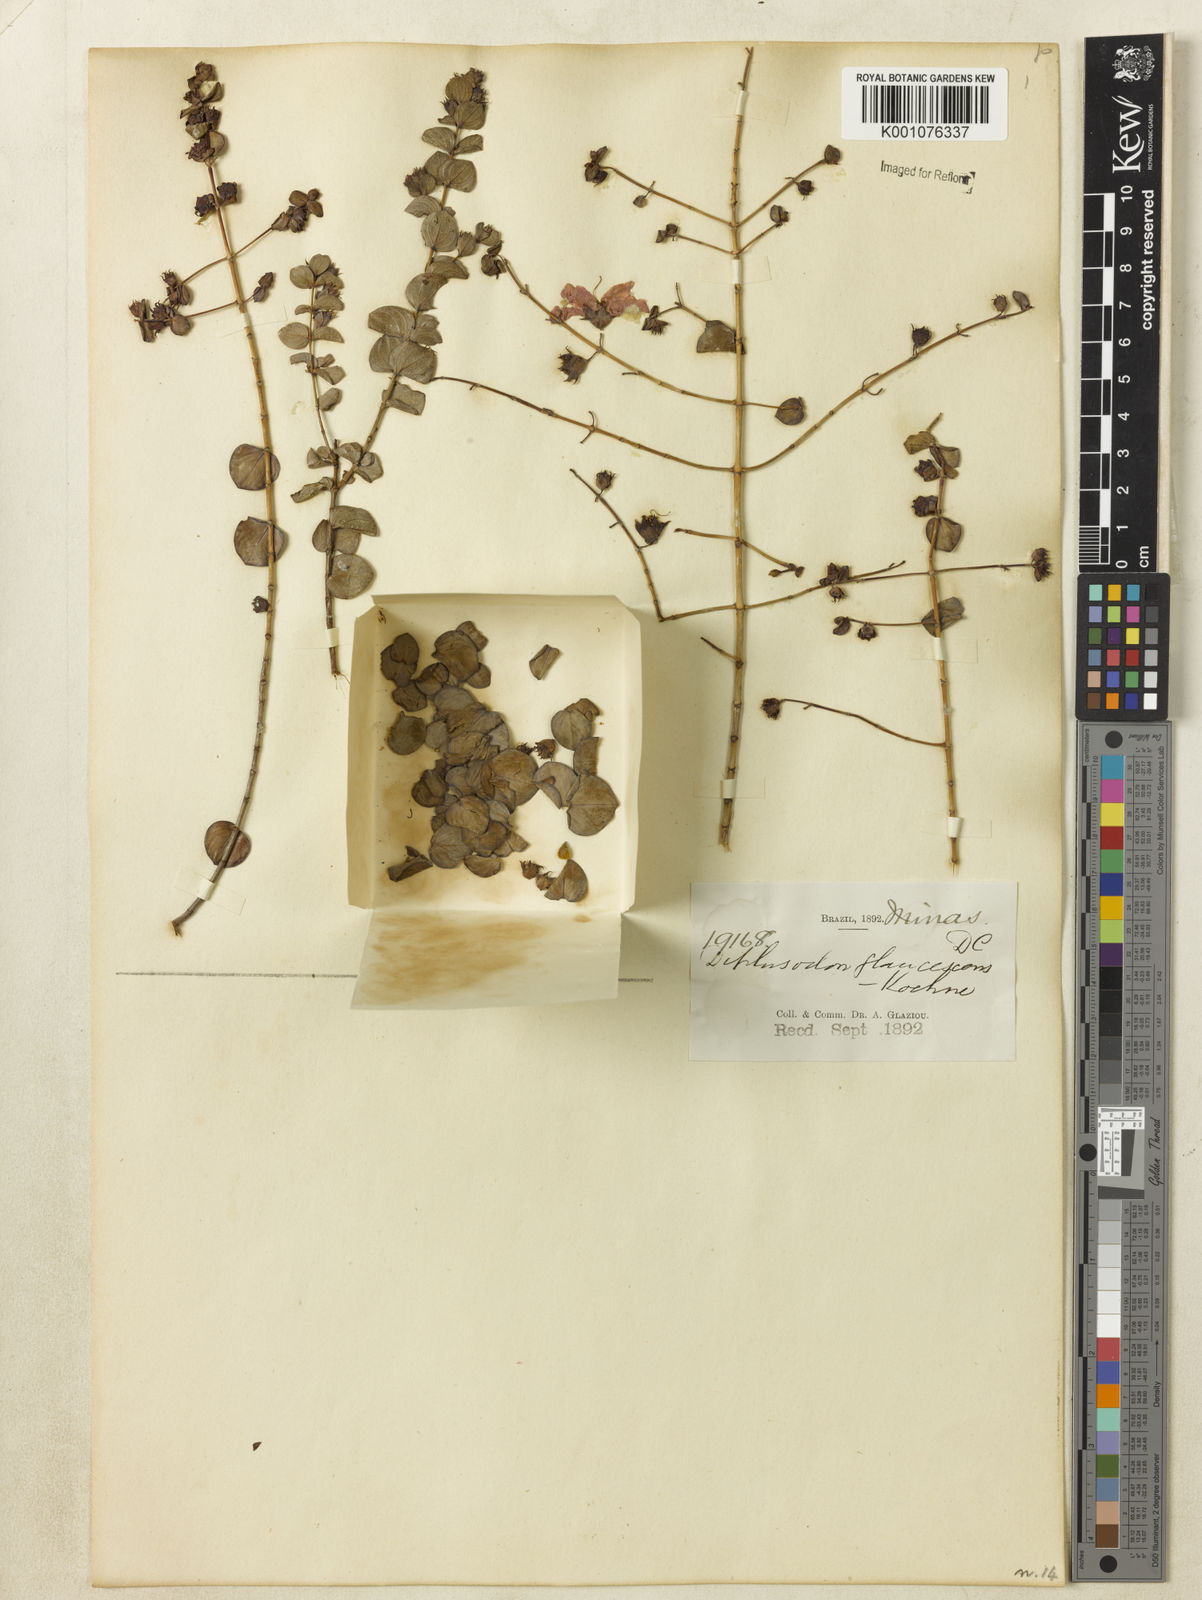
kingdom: Plantae
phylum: Tracheophyta
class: Magnoliopsida
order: Myrtales
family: Lythraceae
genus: Diplusodon
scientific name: Diplusodon glaucescens
